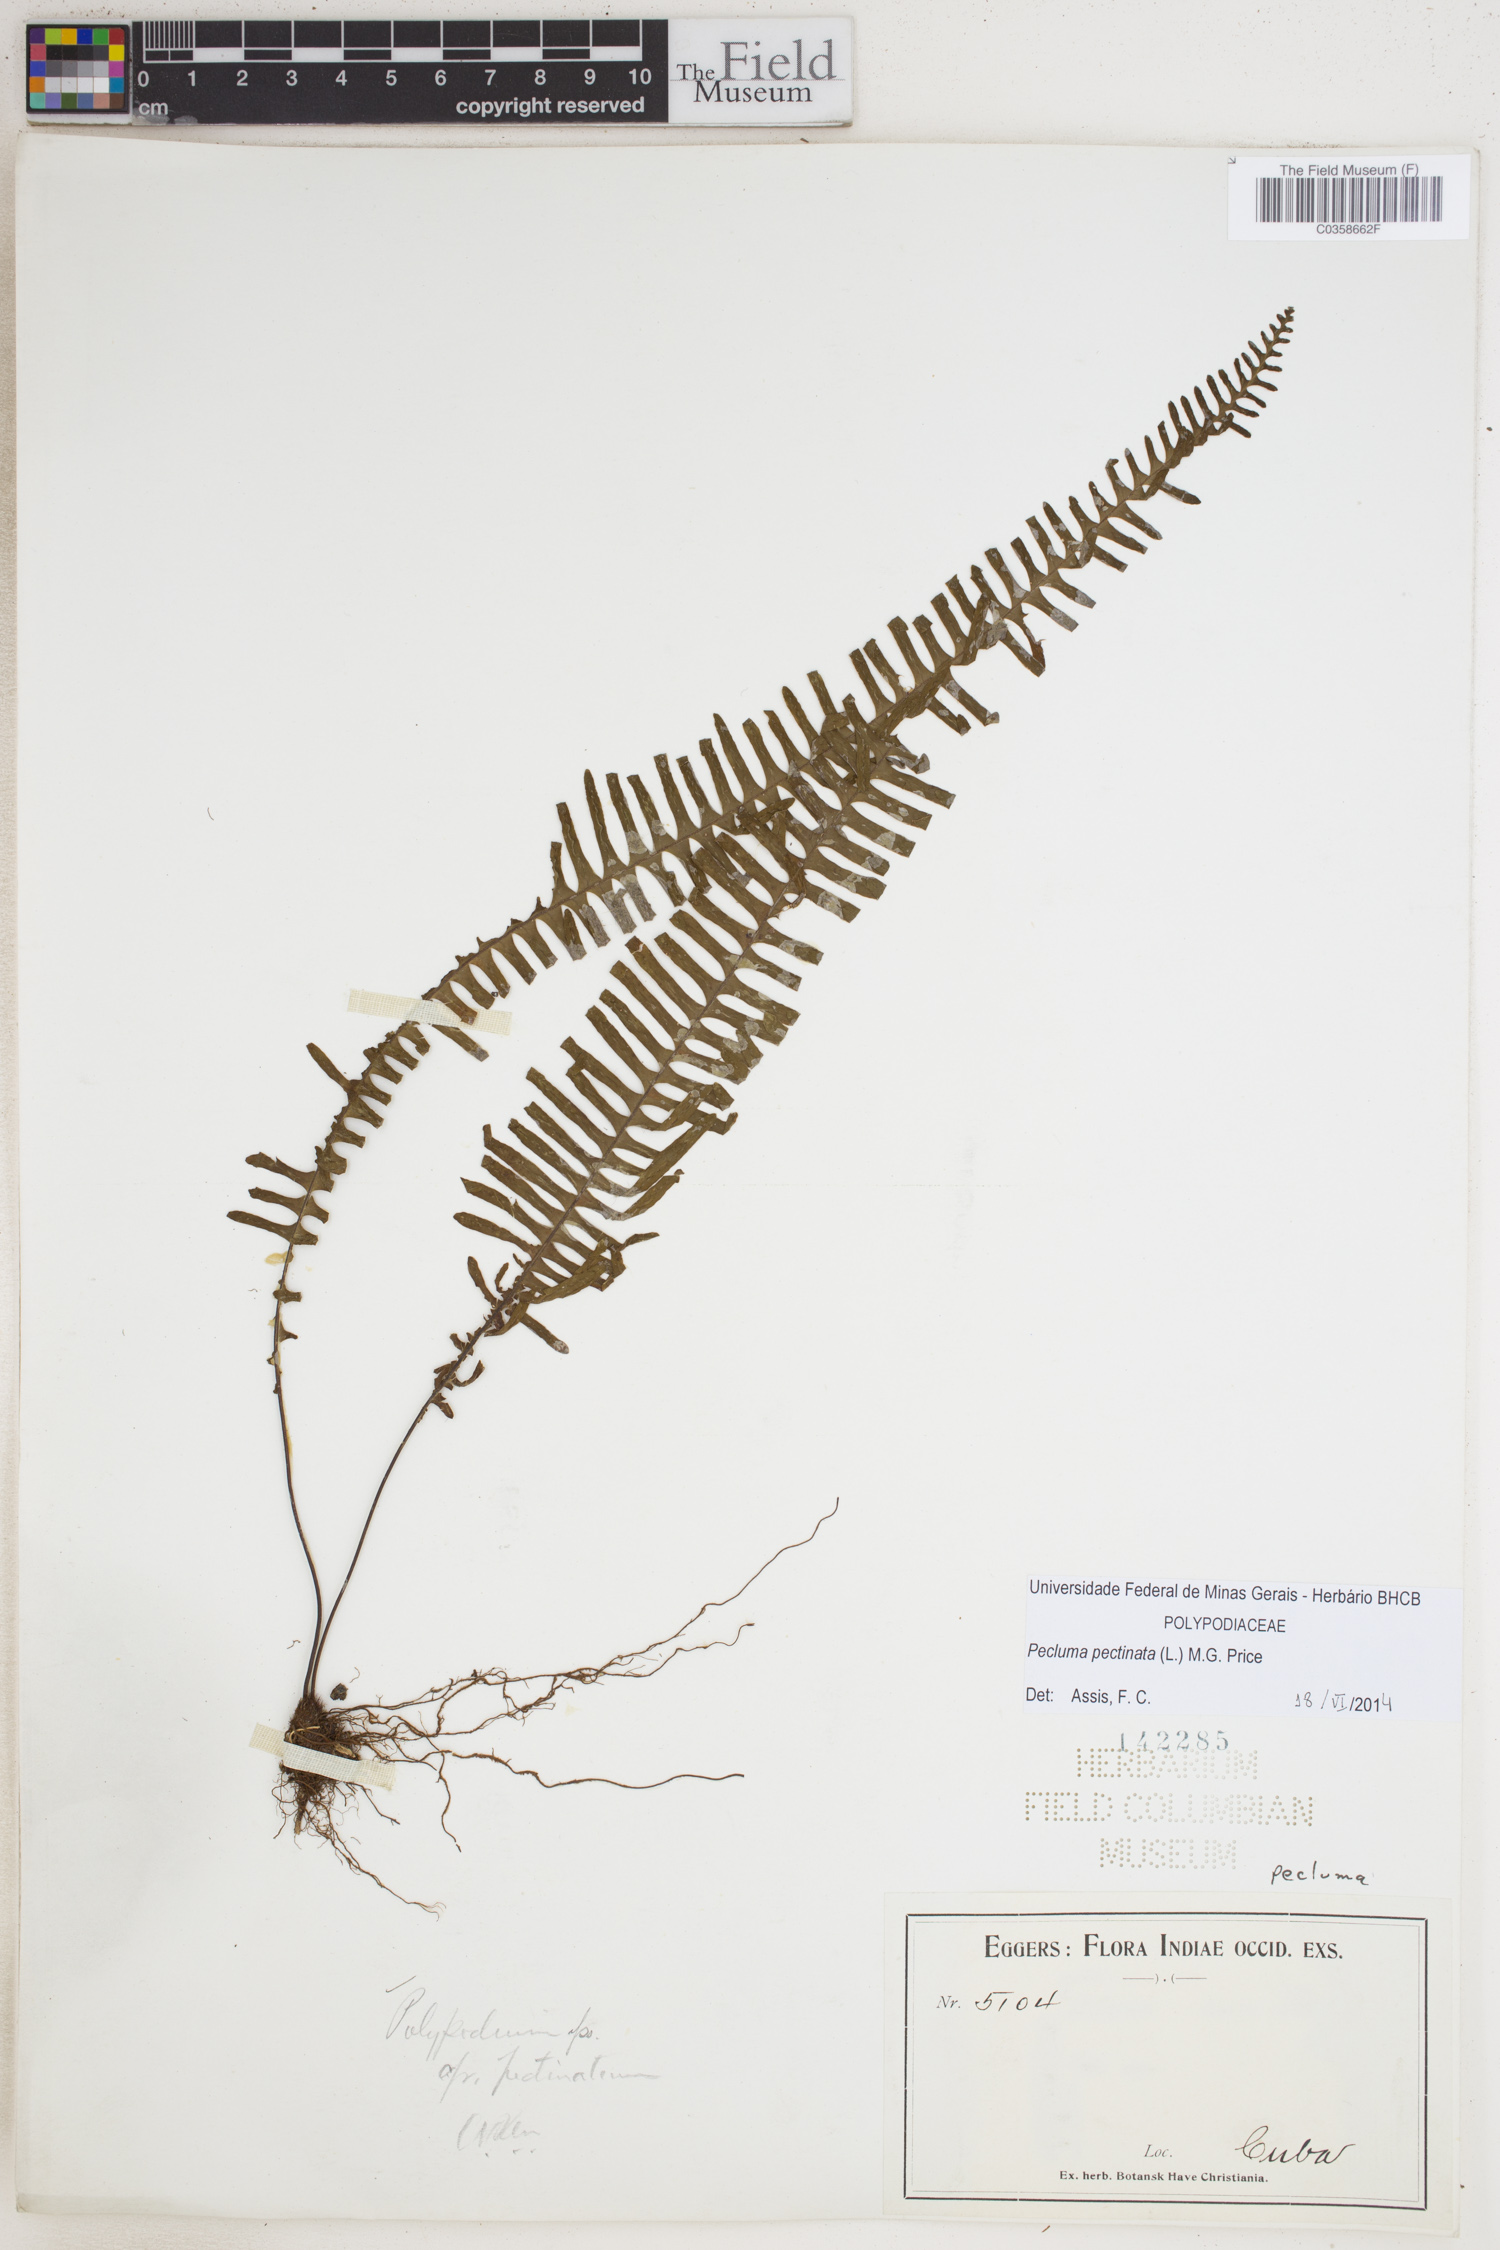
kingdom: Plantae
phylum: Tracheophyta
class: Polypodiopsida
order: Polypodiales
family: Polypodiaceae
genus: Pecluma
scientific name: Pecluma pectinata
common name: Msasa fern
